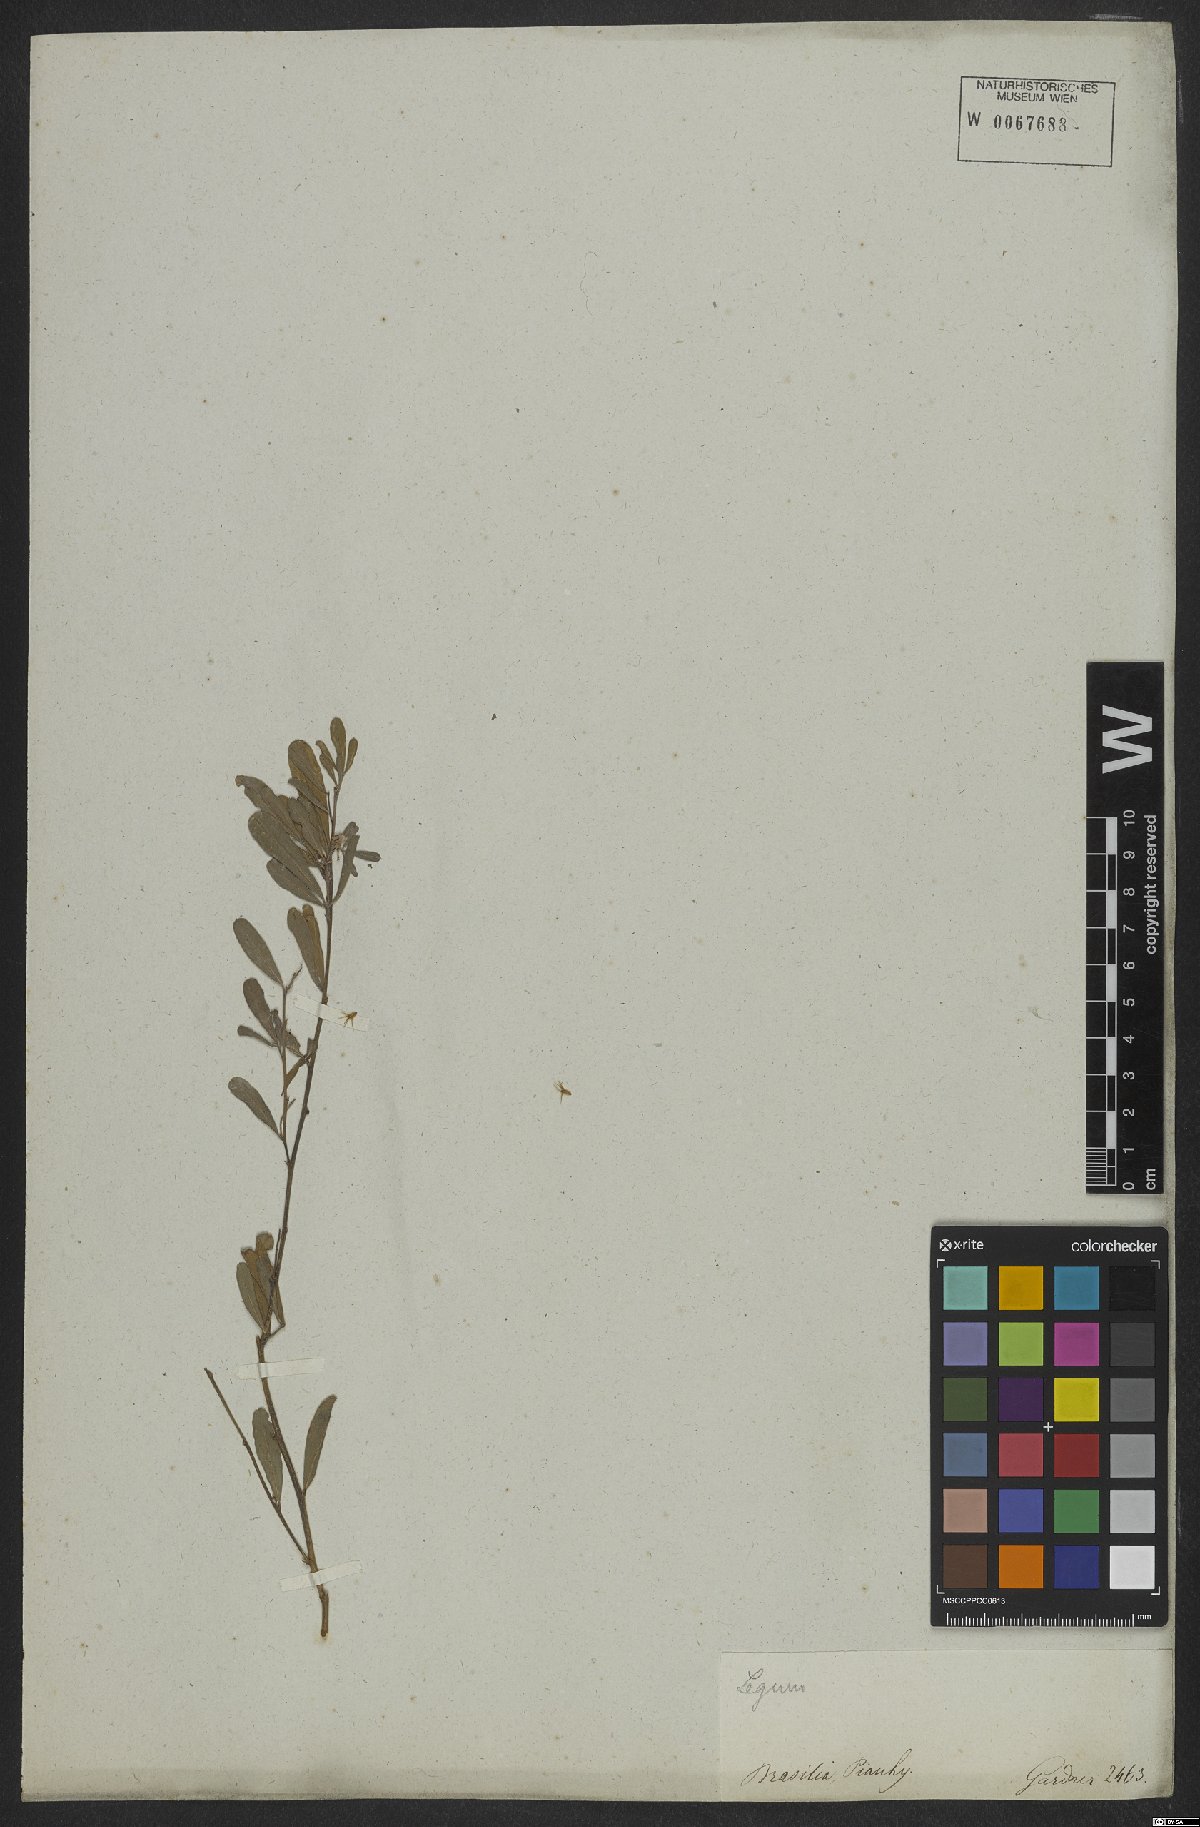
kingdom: Plantae
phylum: Tracheophyta
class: Magnoliopsida
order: Fabales
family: Fabaceae
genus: Indigofera
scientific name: Indigofera lespedezioides
